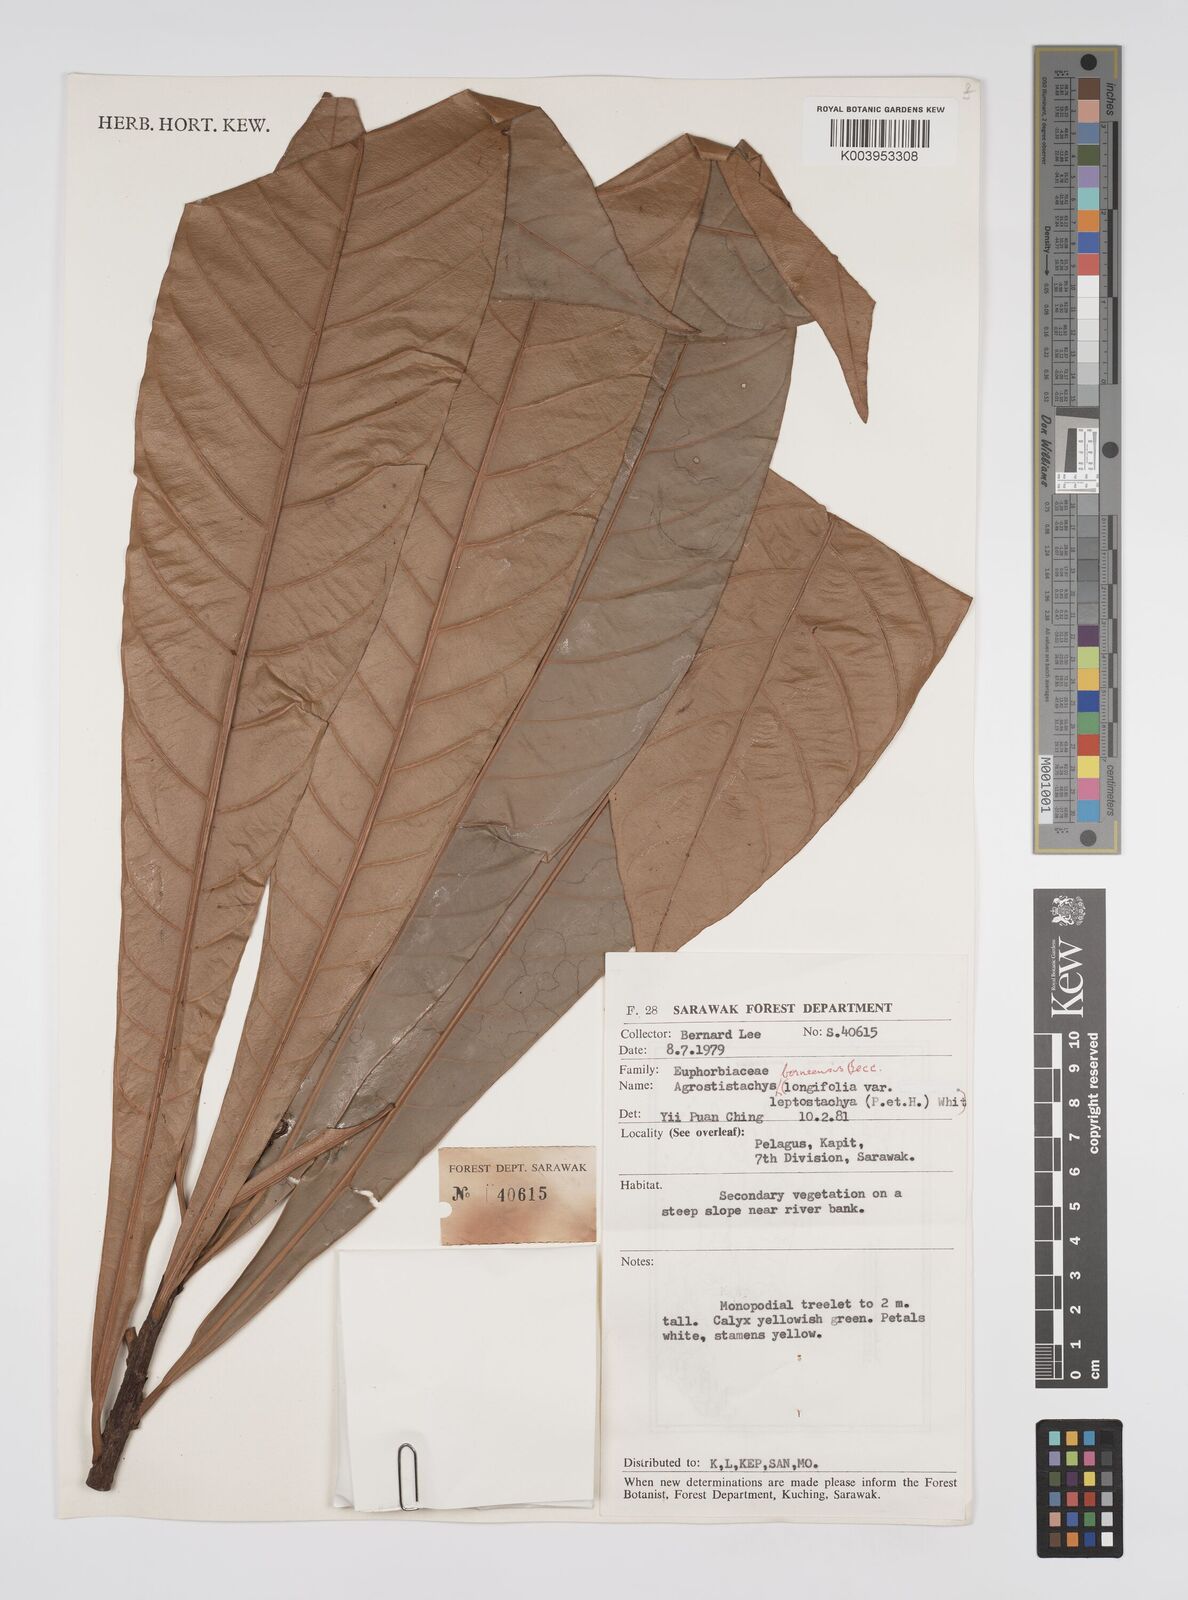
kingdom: Plantae
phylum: Tracheophyta
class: Magnoliopsida
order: Malpighiales
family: Euphorbiaceae
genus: Agrostistachys
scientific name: Agrostistachys borneensis
